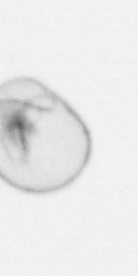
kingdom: Chromista
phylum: Myzozoa
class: Dinophyceae
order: Noctilucales
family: Noctilucaceae
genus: Noctiluca
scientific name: Noctiluca scintillans
